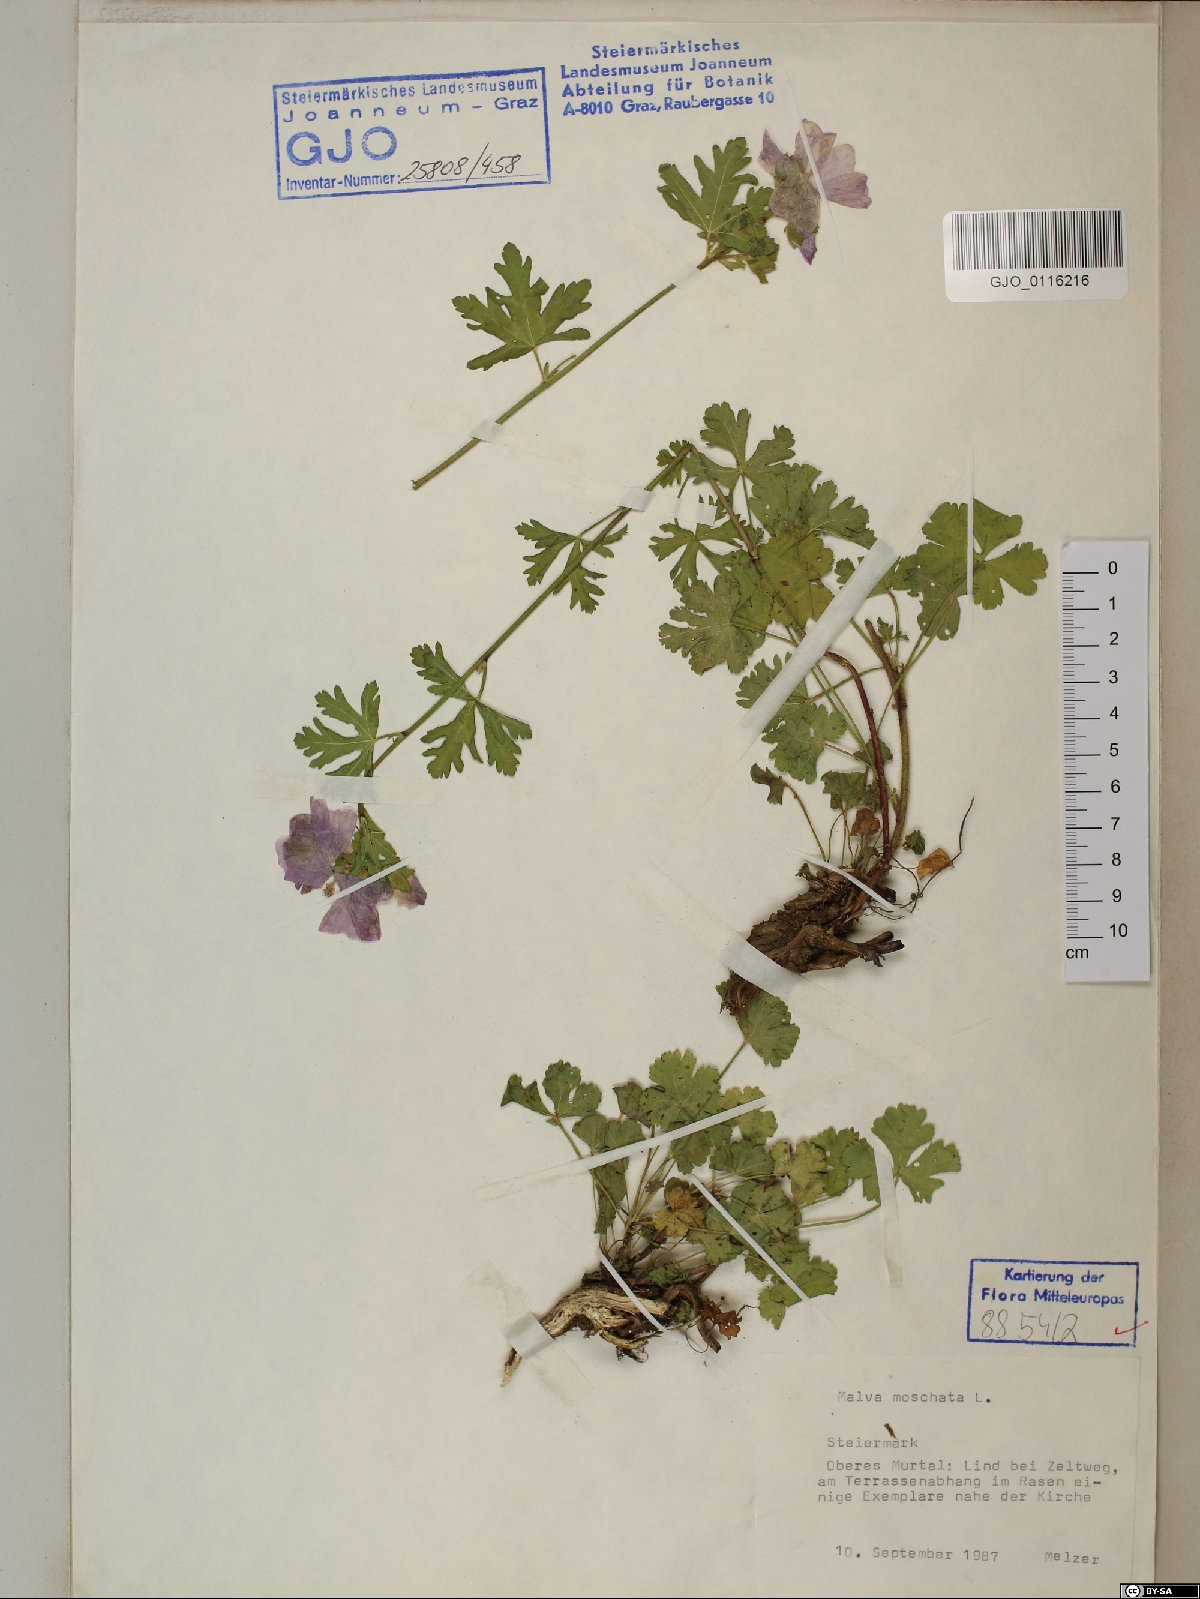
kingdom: Plantae
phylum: Tracheophyta
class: Magnoliopsida
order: Malvales
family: Malvaceae
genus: Malva
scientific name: Malva moschata
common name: Musk mallow
